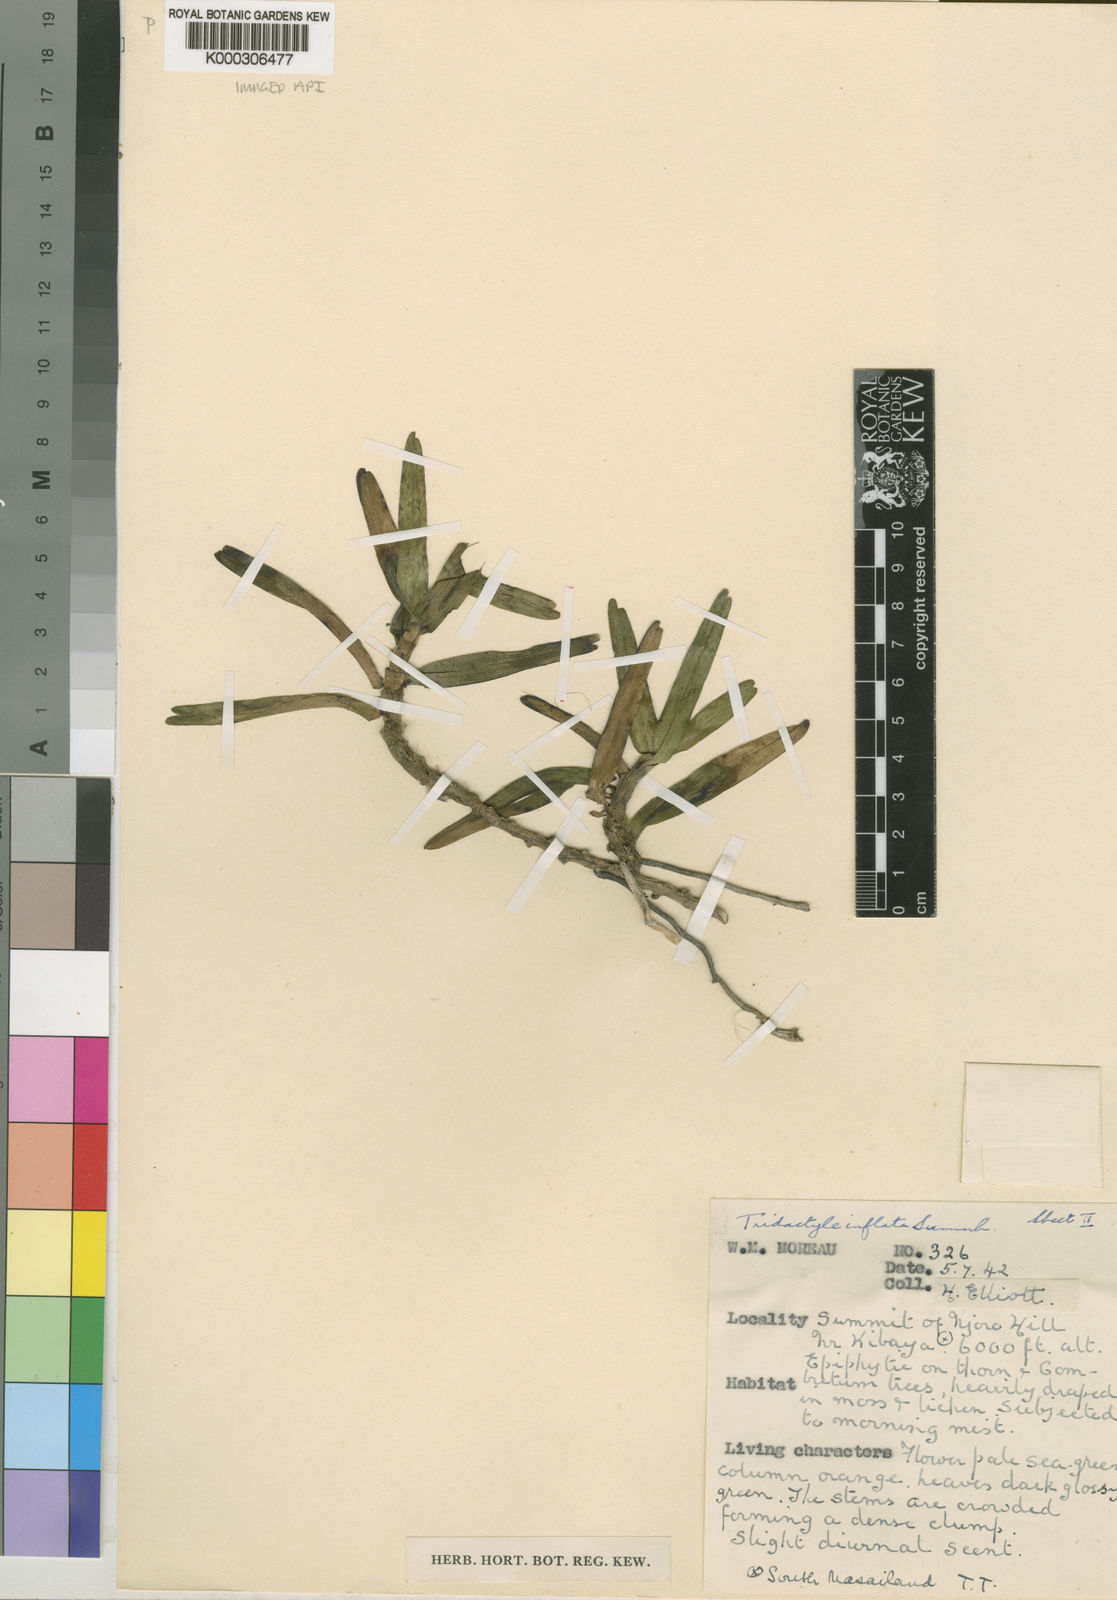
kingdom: Plantae
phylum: Tracheophyta
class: Liliopsida
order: Asparagales
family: Orchidaceae
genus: Tridactyle
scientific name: Tridactyle inflata
